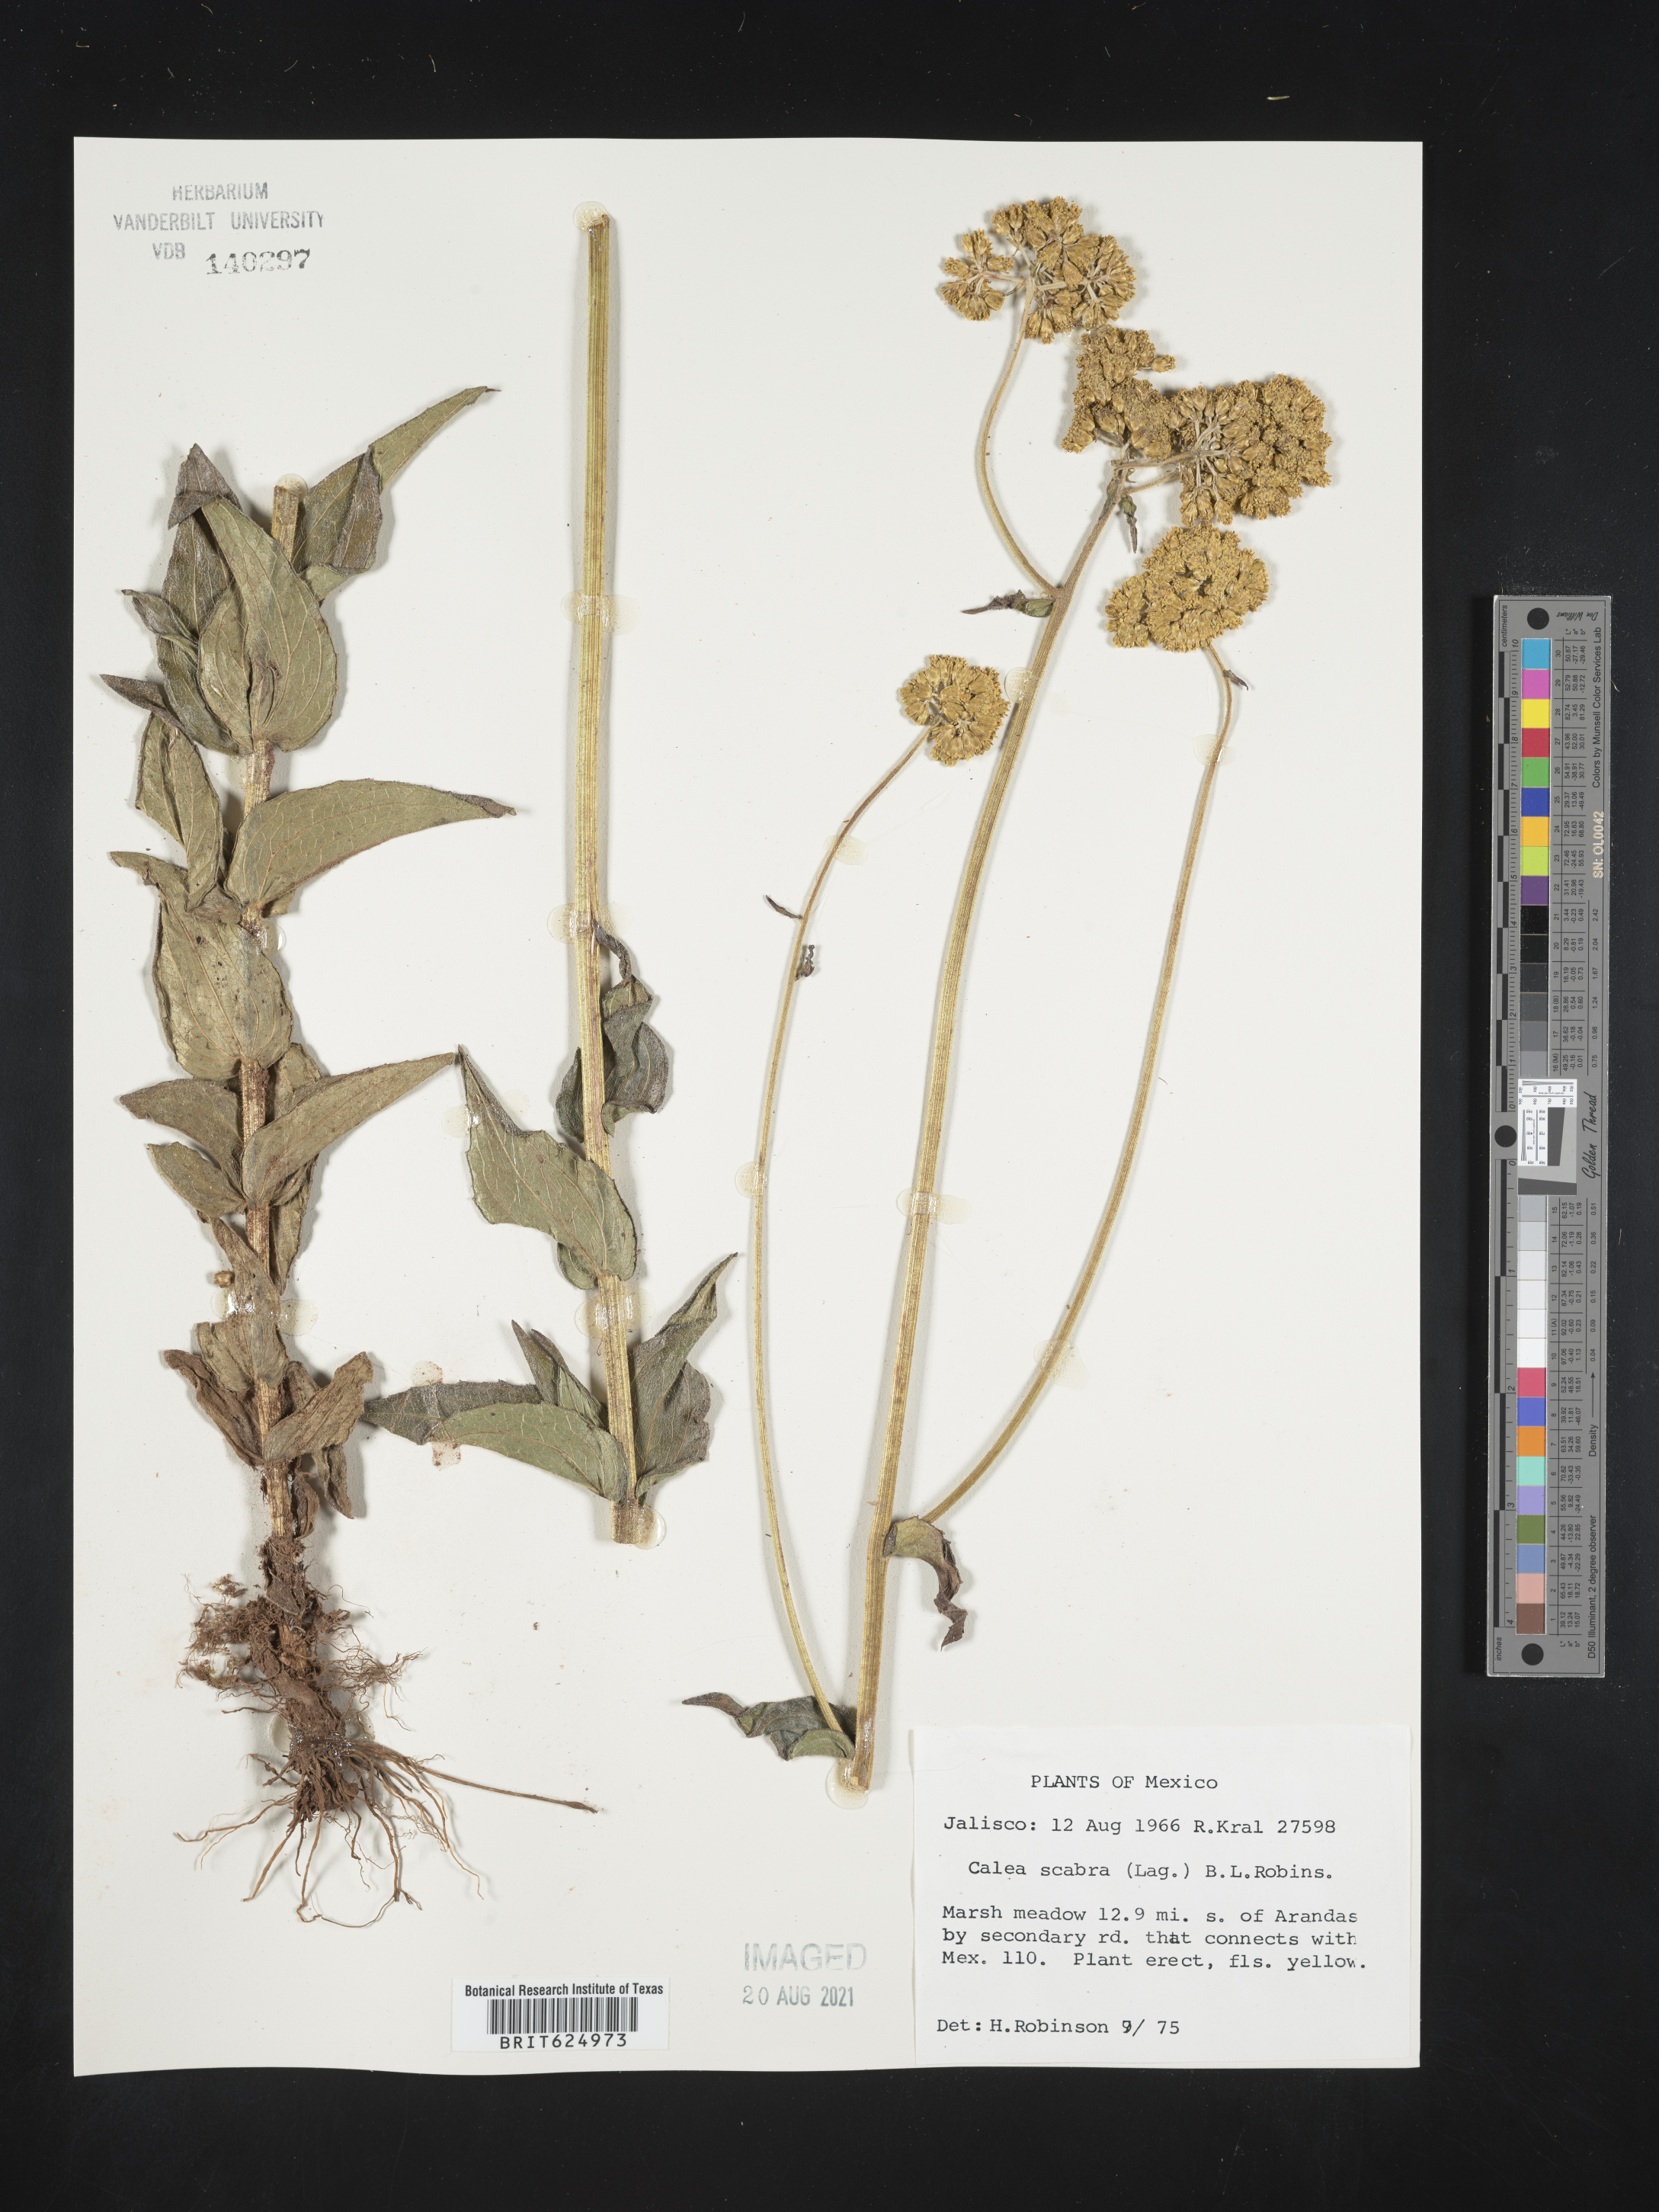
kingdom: Plantae
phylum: Tracheophyta
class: Magnoliopsida
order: Asterales
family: Asteraceae
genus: Alloispermum
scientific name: Alloispermum scabrum
